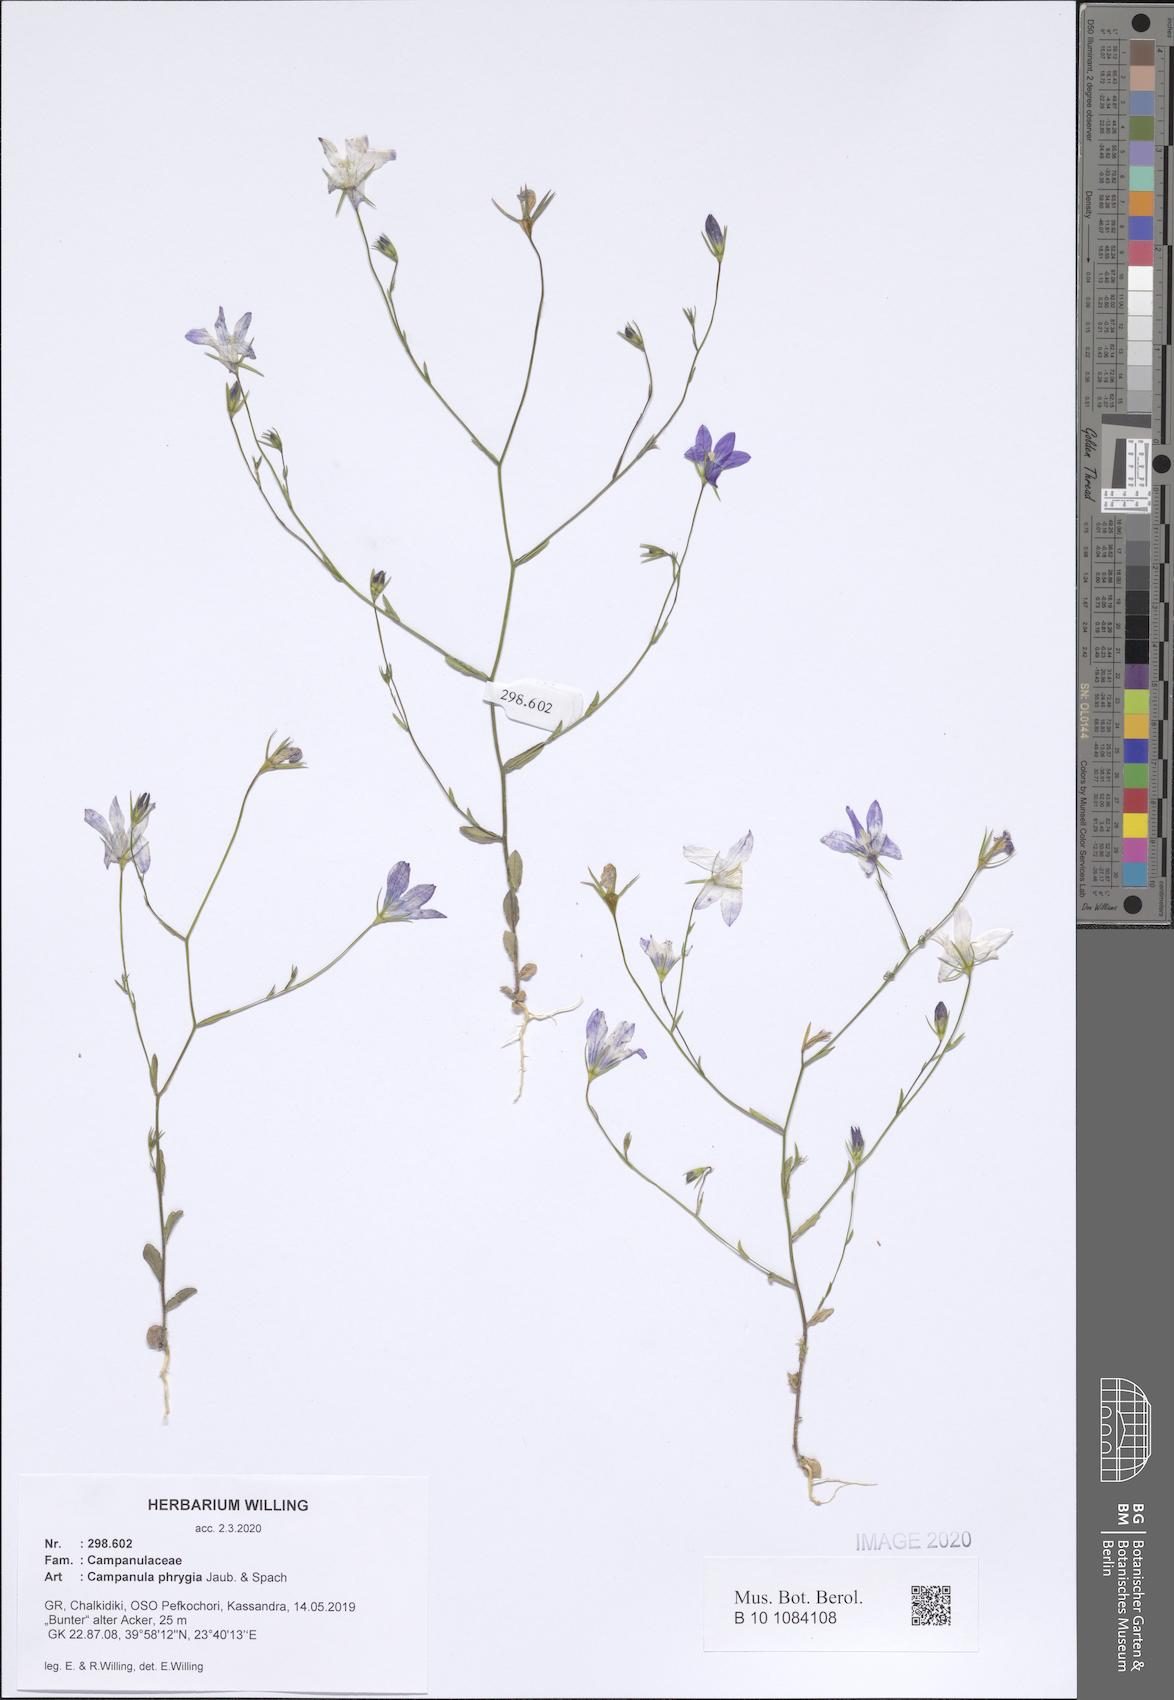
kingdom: Plantae
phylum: Tracheophyta
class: Magnoliopsida
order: Asterales
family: Campanulaceae
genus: Campanula
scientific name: Campanula phrygia
